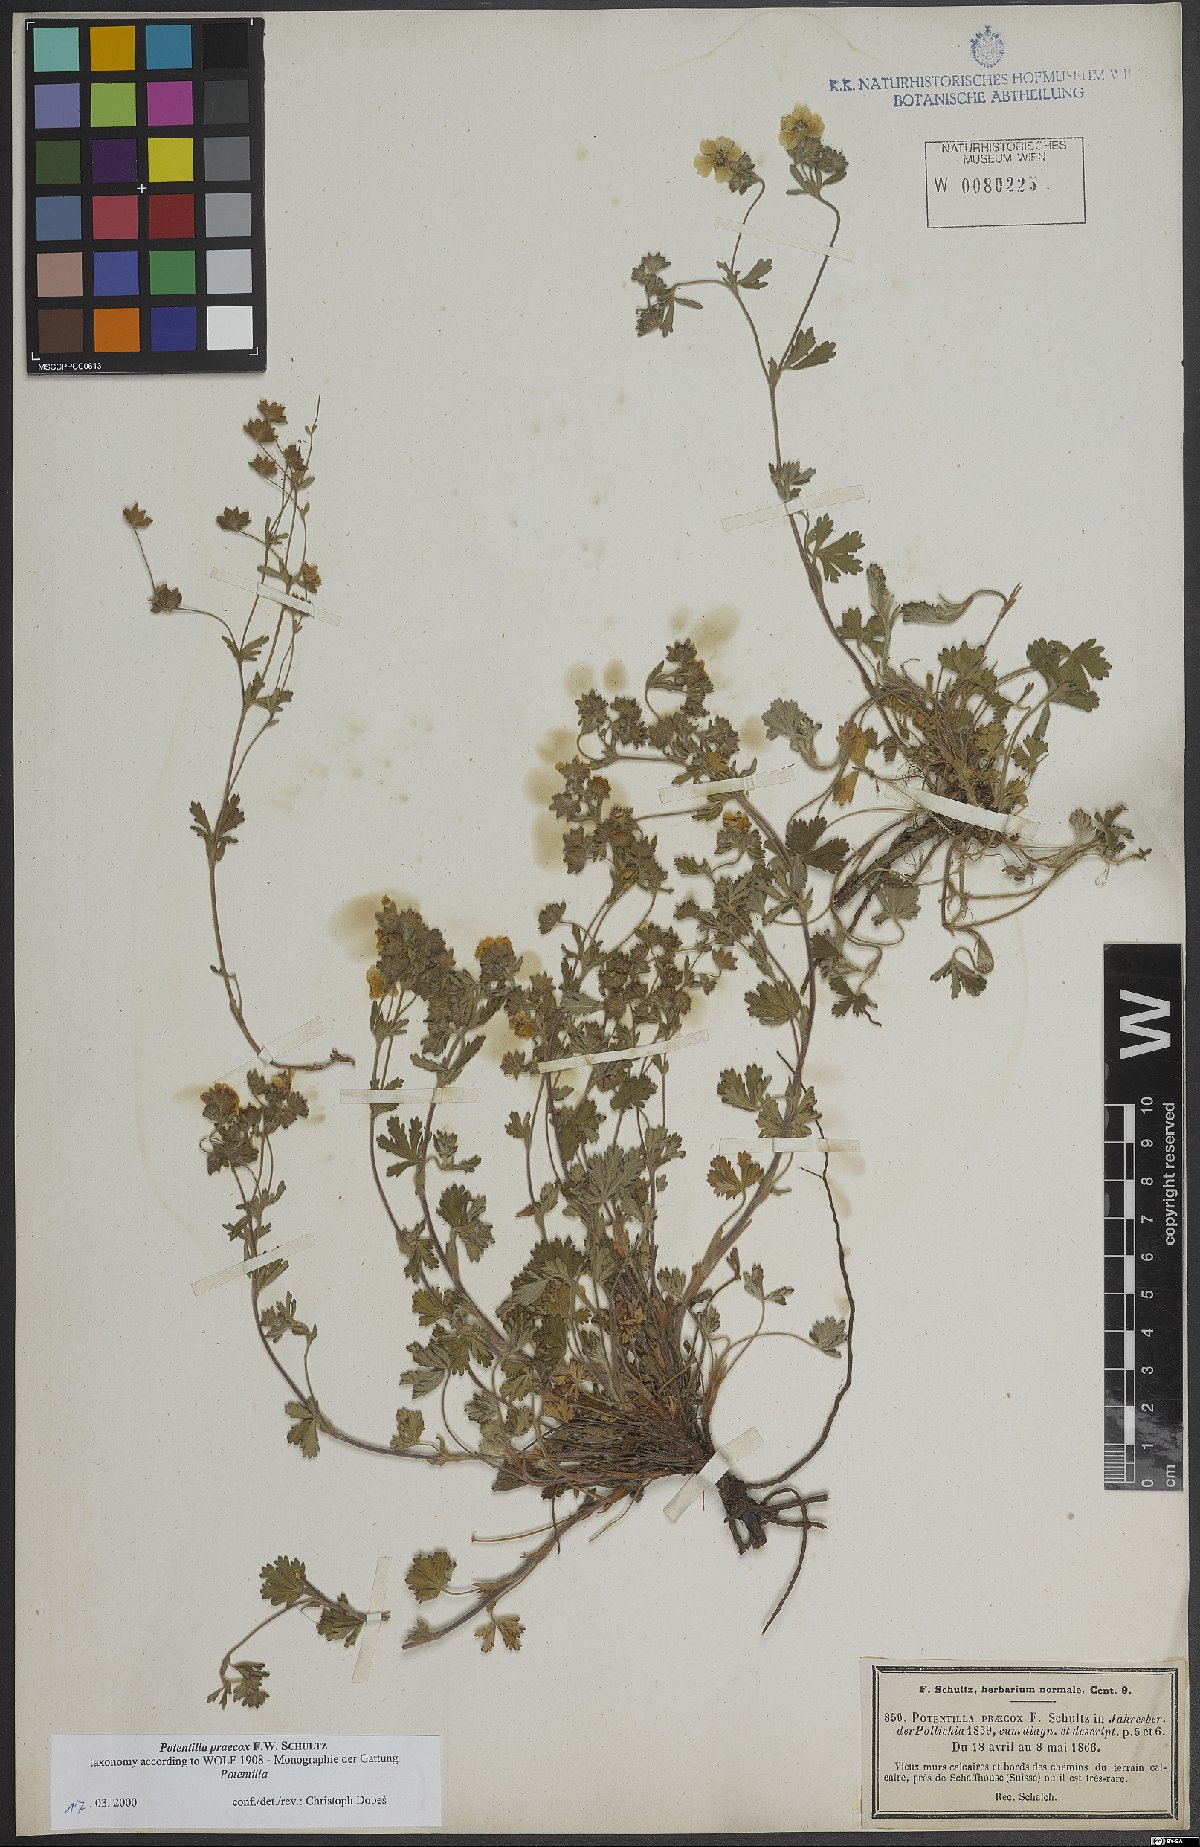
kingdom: Plantae
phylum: Tracheophyta
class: Magnoliopsida
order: Rosales
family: Rosaceae
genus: Potentilla
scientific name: Potentilla praecox
